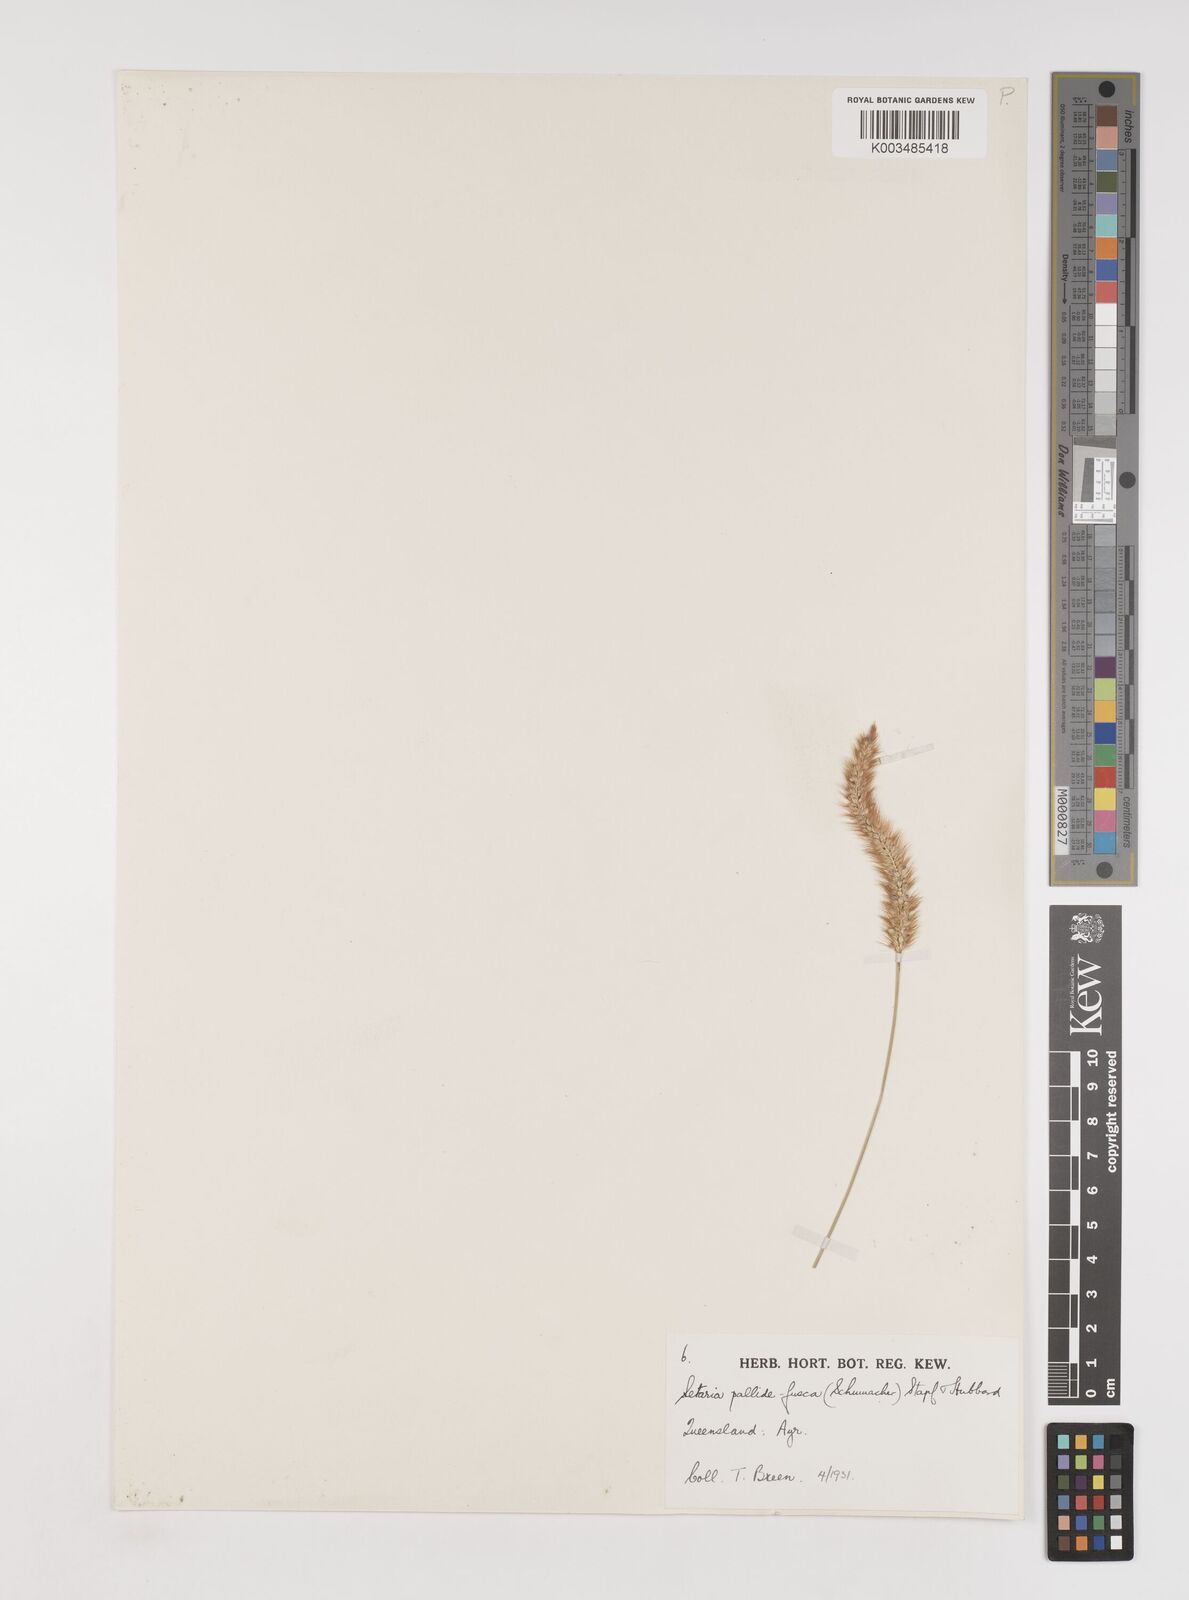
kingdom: Plantae
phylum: Tracheophyta
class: Liliopsida
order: Poales
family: Poaceae
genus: Setaria
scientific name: Setaria pumila
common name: Yellow bristle-grass
